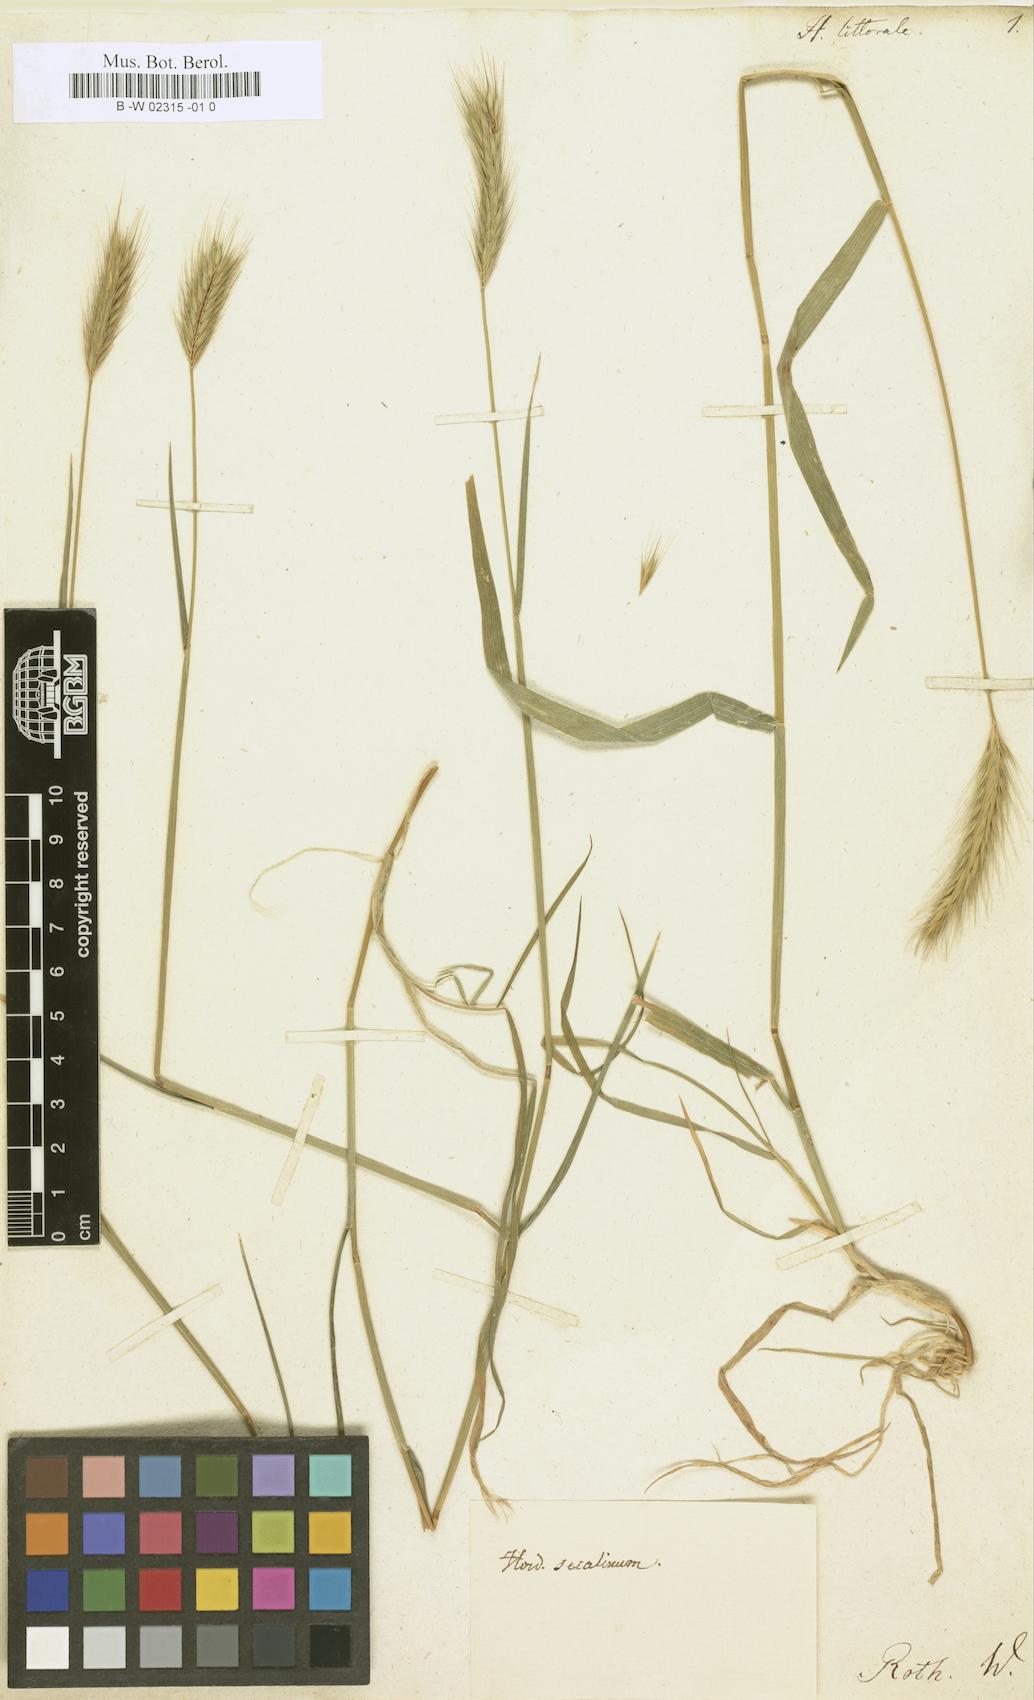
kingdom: Plantae
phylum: Tracheophyta
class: Liliopsida
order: Poales
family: Poaceae
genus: Hordeum
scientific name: Hordeum
